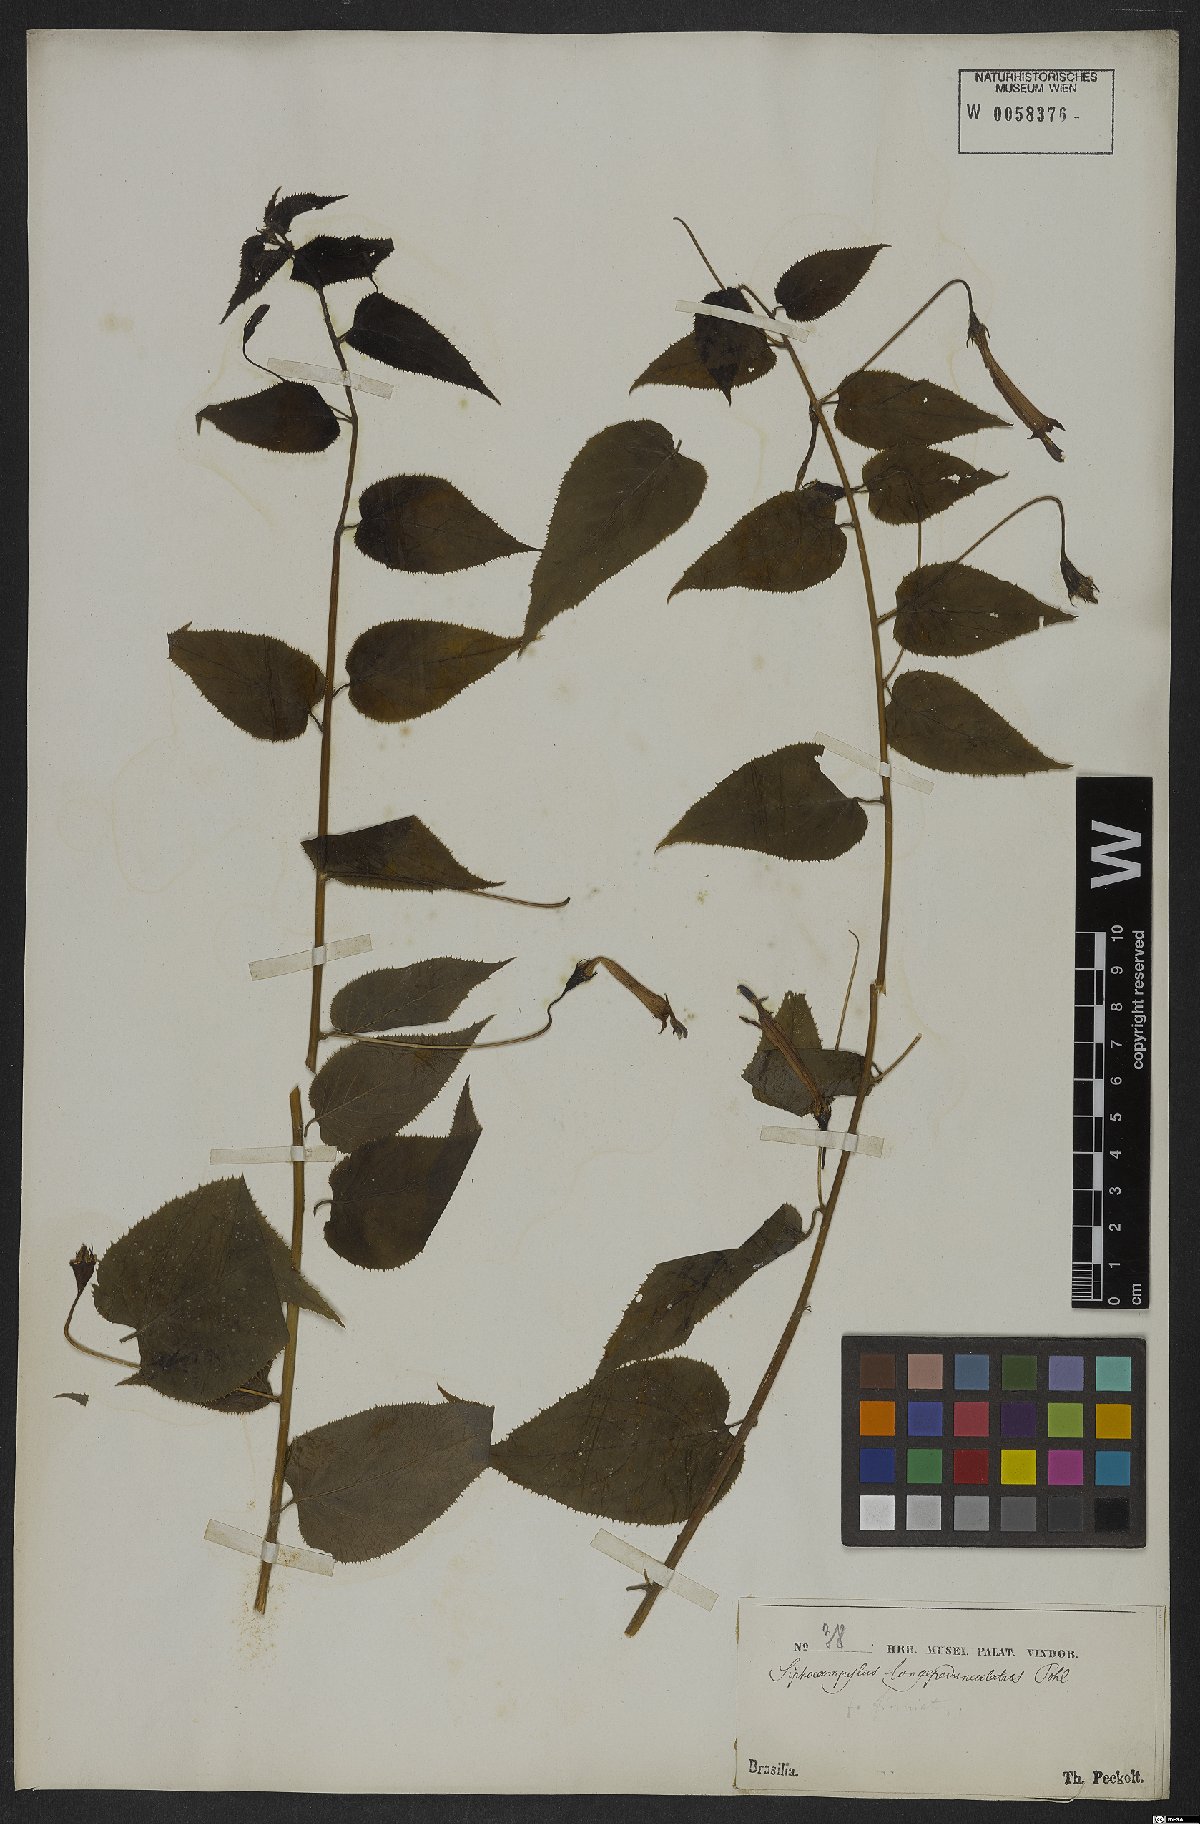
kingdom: Plantae
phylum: Tracheophyta
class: Magnoliopsida
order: Asterales
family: Campanulaceae
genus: Siphocampylus
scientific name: Siphocampylus longipedunculatus
